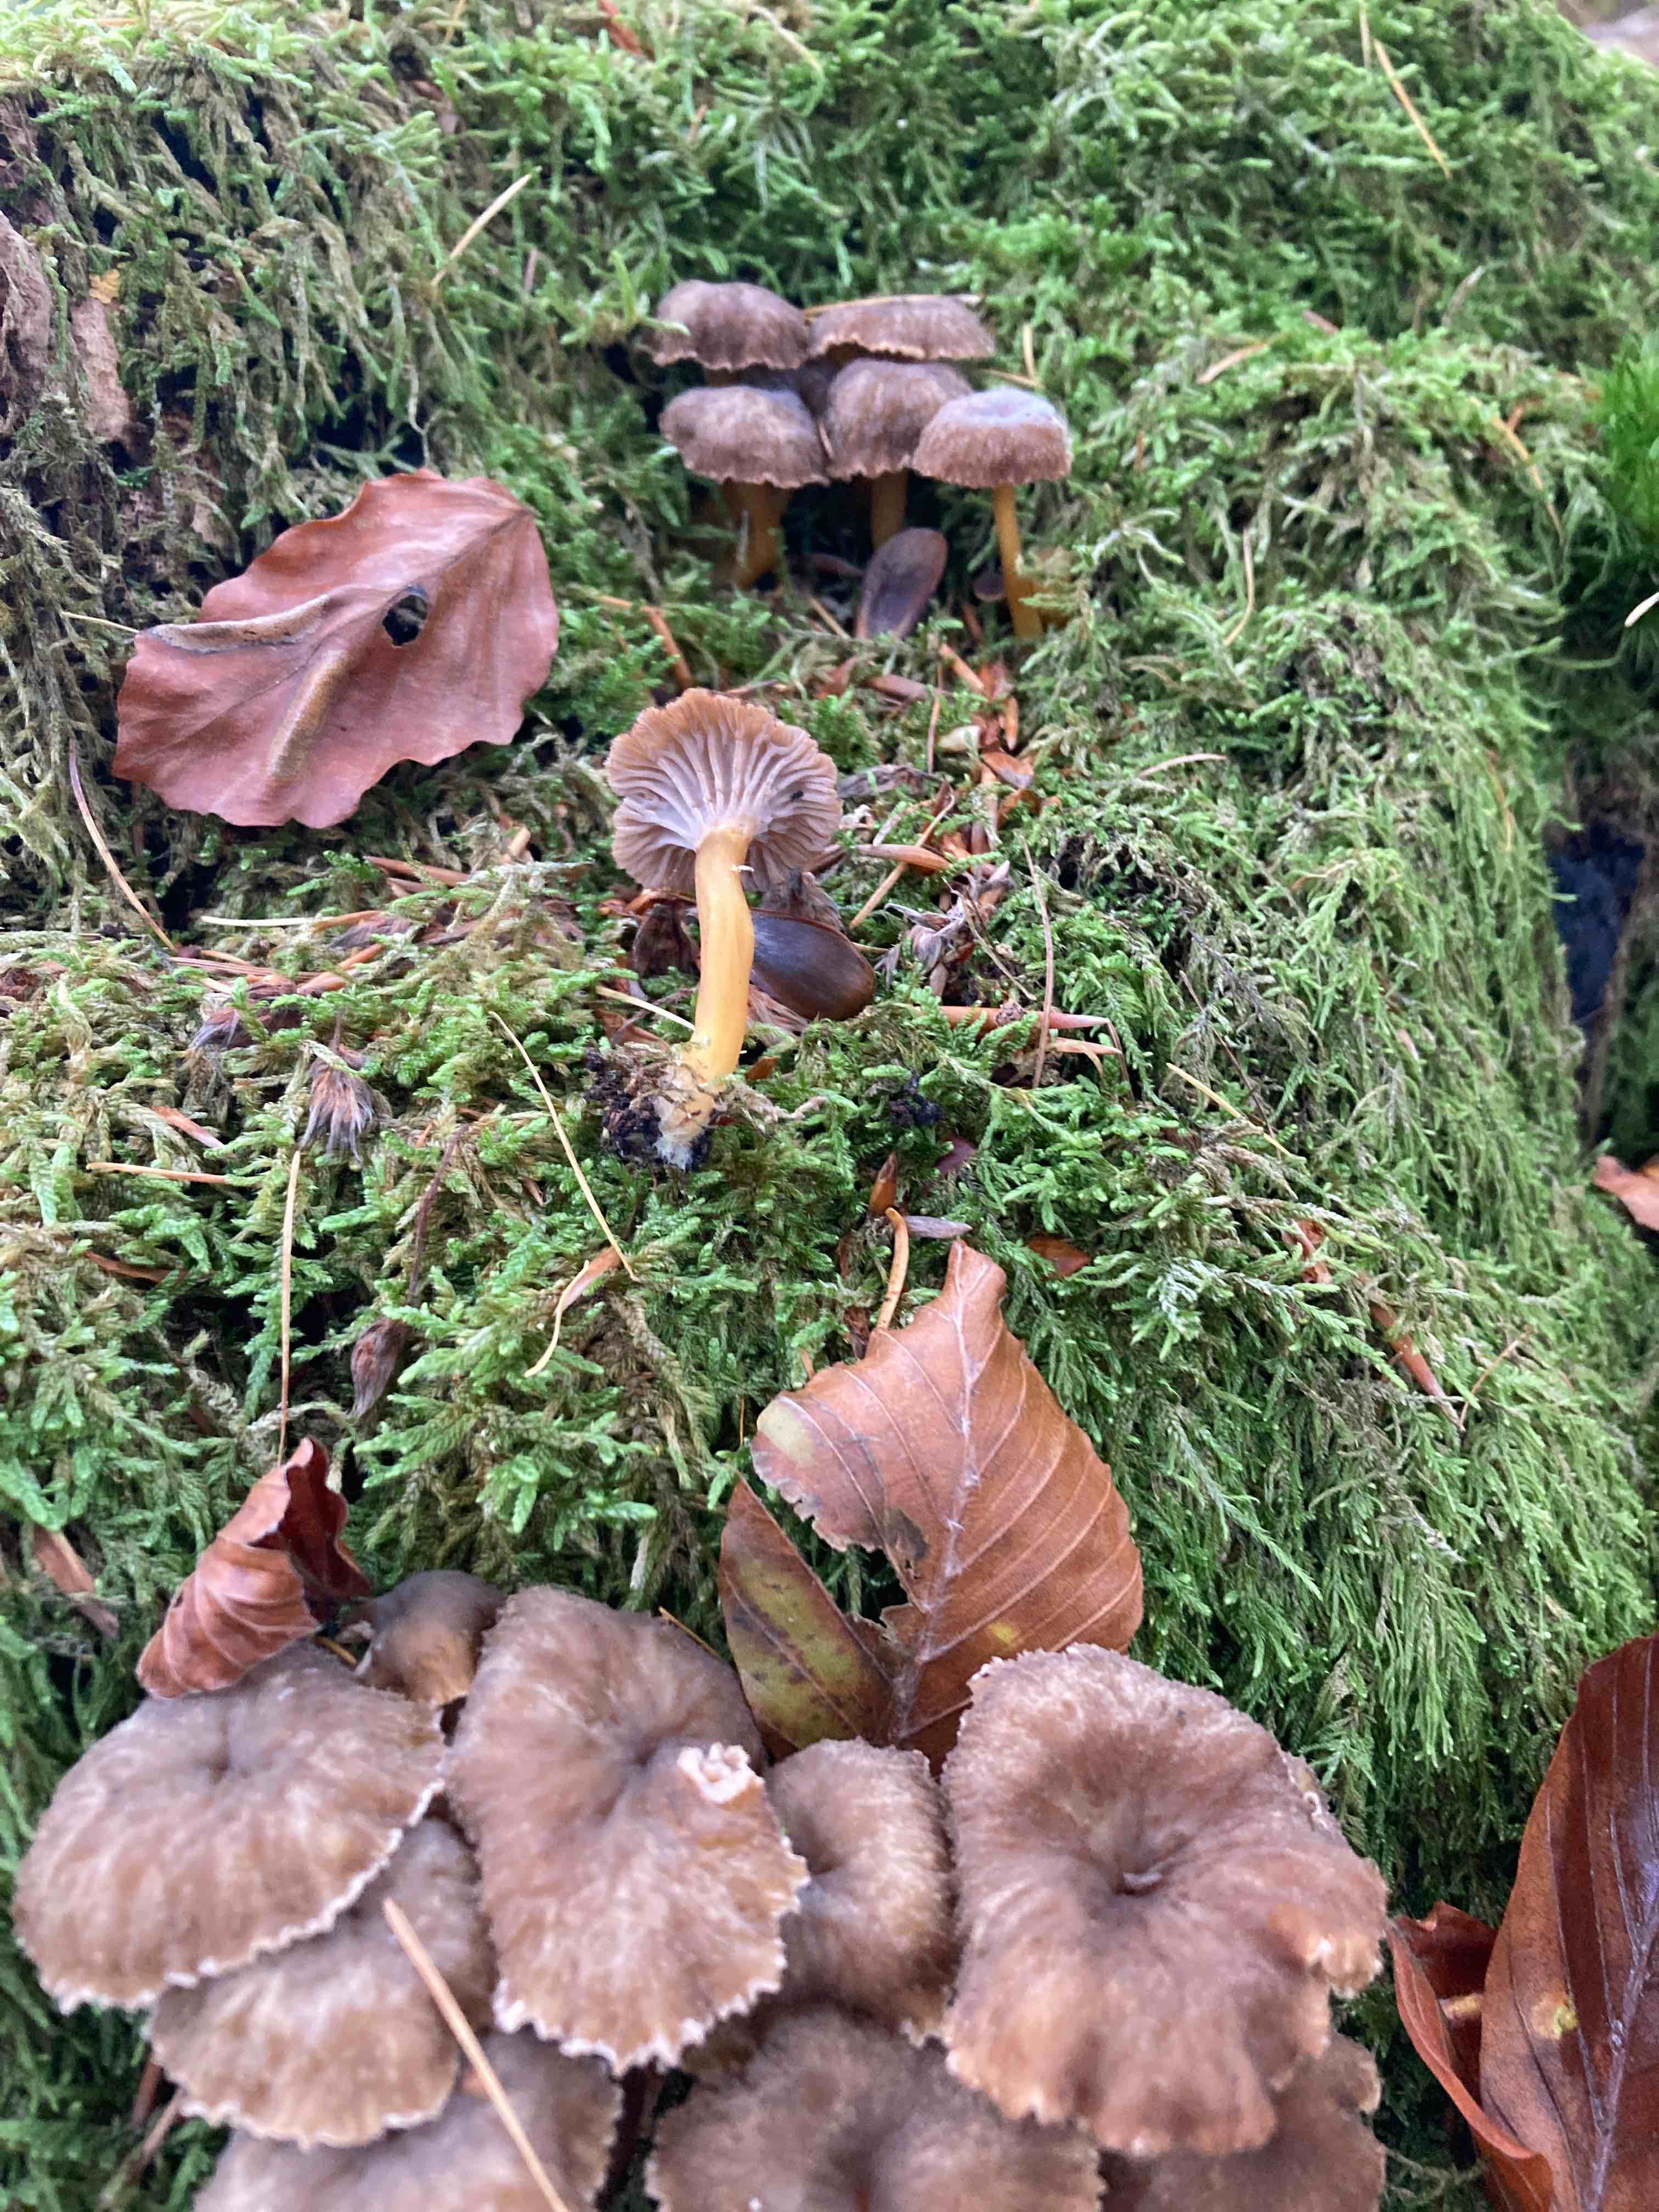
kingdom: Fungi
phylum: Basidiomycota
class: Agaricomycetes
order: Cantharellales
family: Hydnaceae
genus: Craterellus
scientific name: Craterellus tubaeformis
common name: tragt-kantarel
